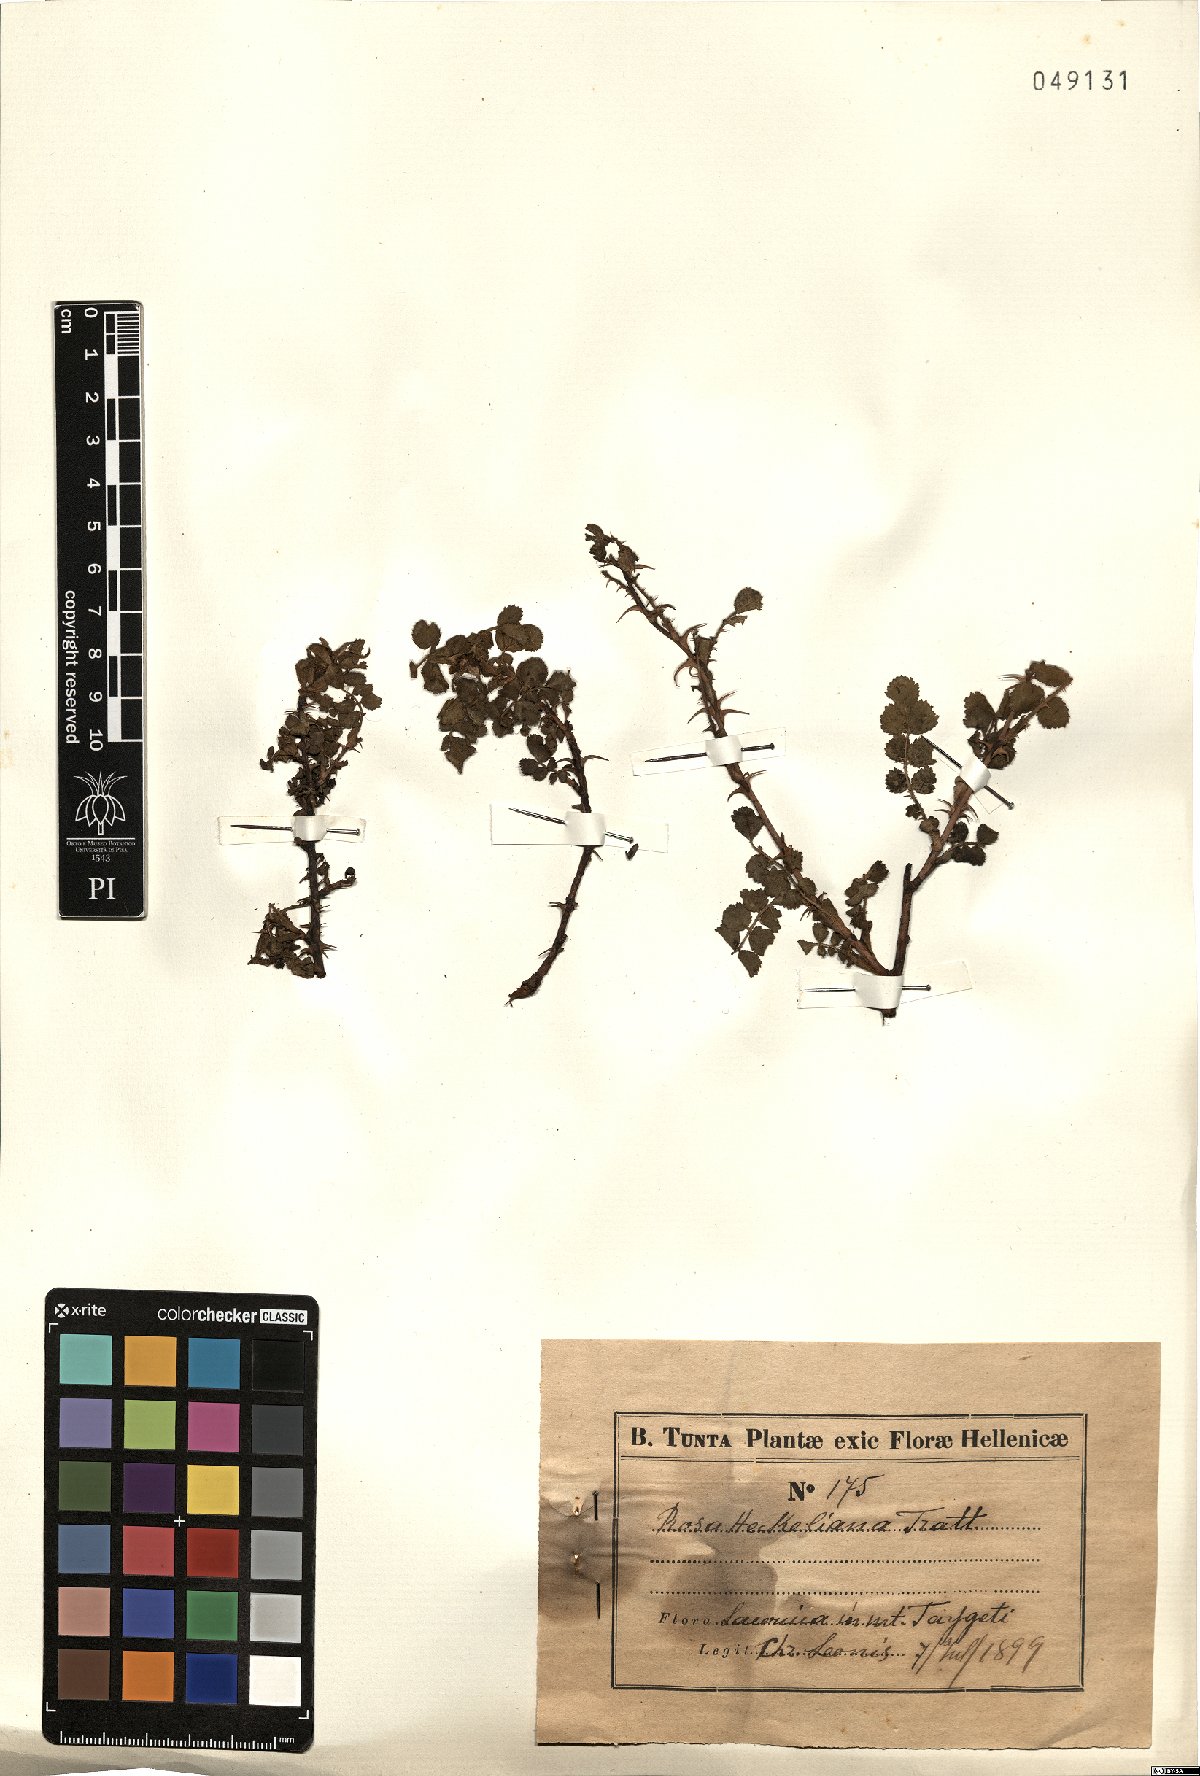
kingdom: Plantae
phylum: Tracheophyta
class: Magnoliopsida
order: Rosales
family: Rosaceae
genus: Rosa
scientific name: Rosa heckeliana
